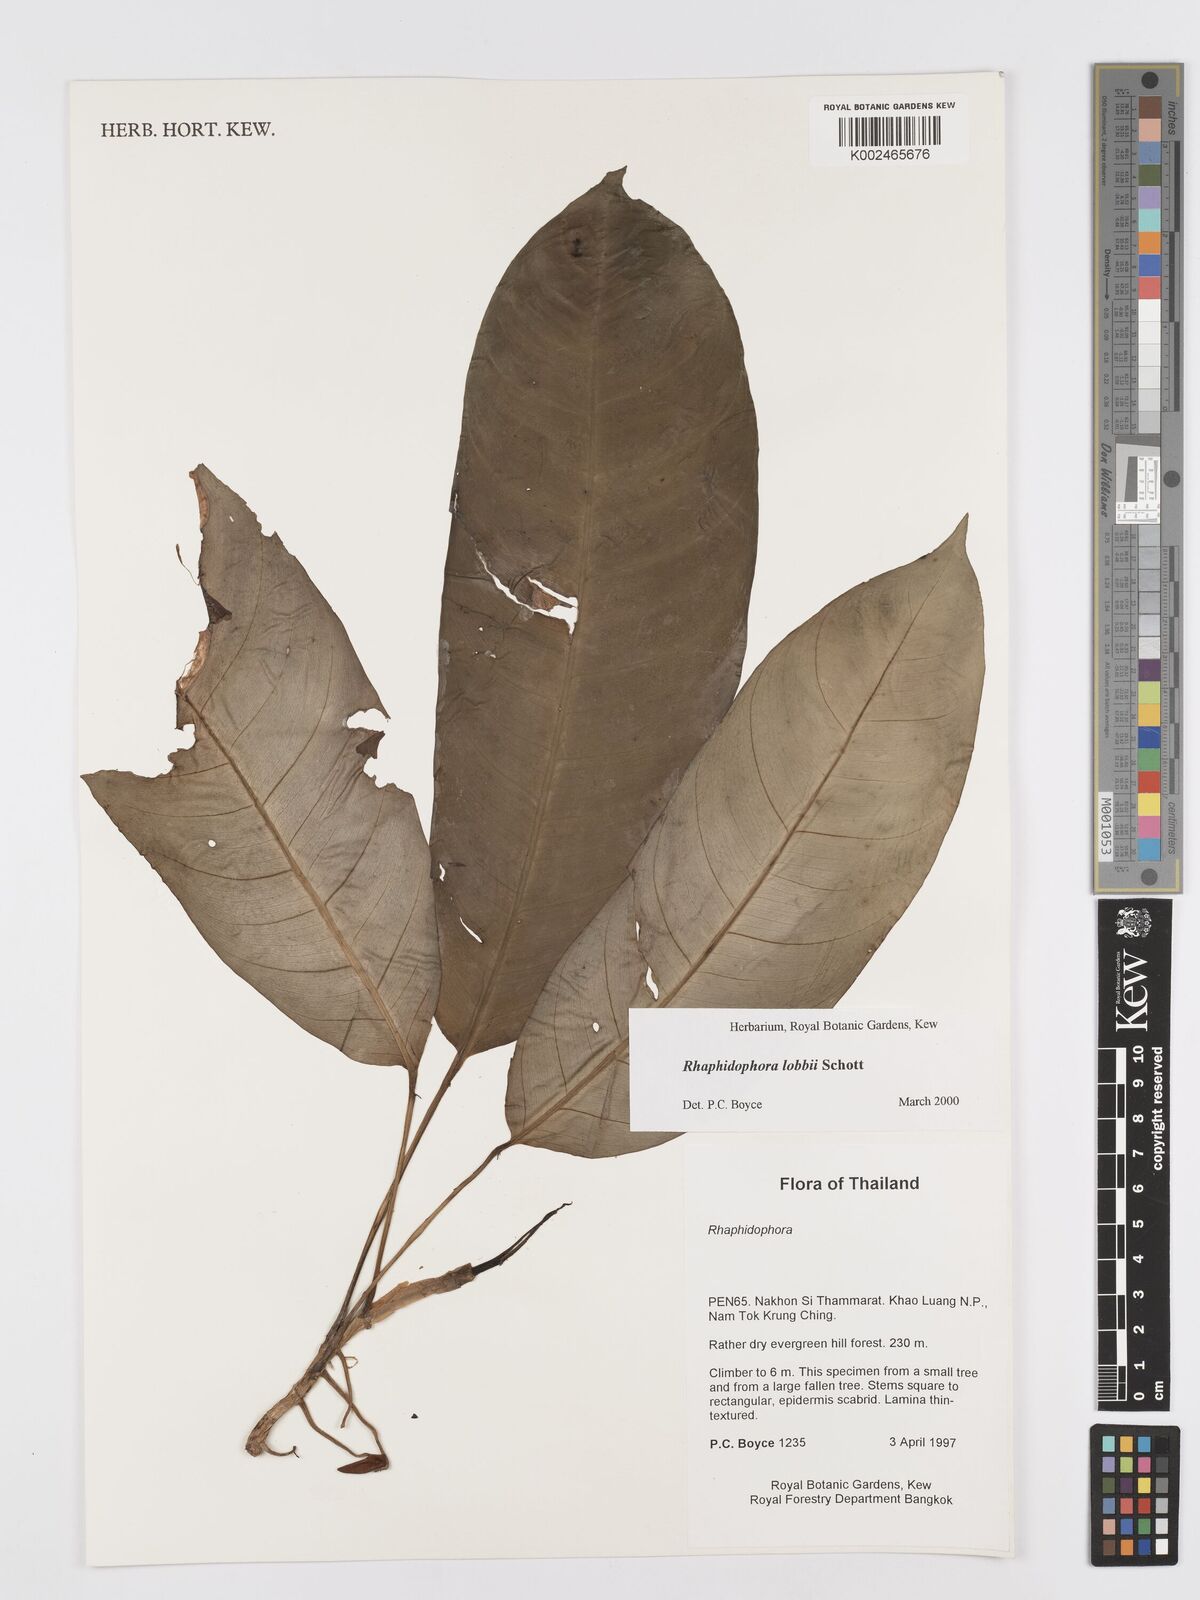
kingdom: Plantae
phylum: Tracheophyta
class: Liliopsida
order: Alismatales
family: Araceae
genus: Rhaphidophora
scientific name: Rhaphidophora lobbii
